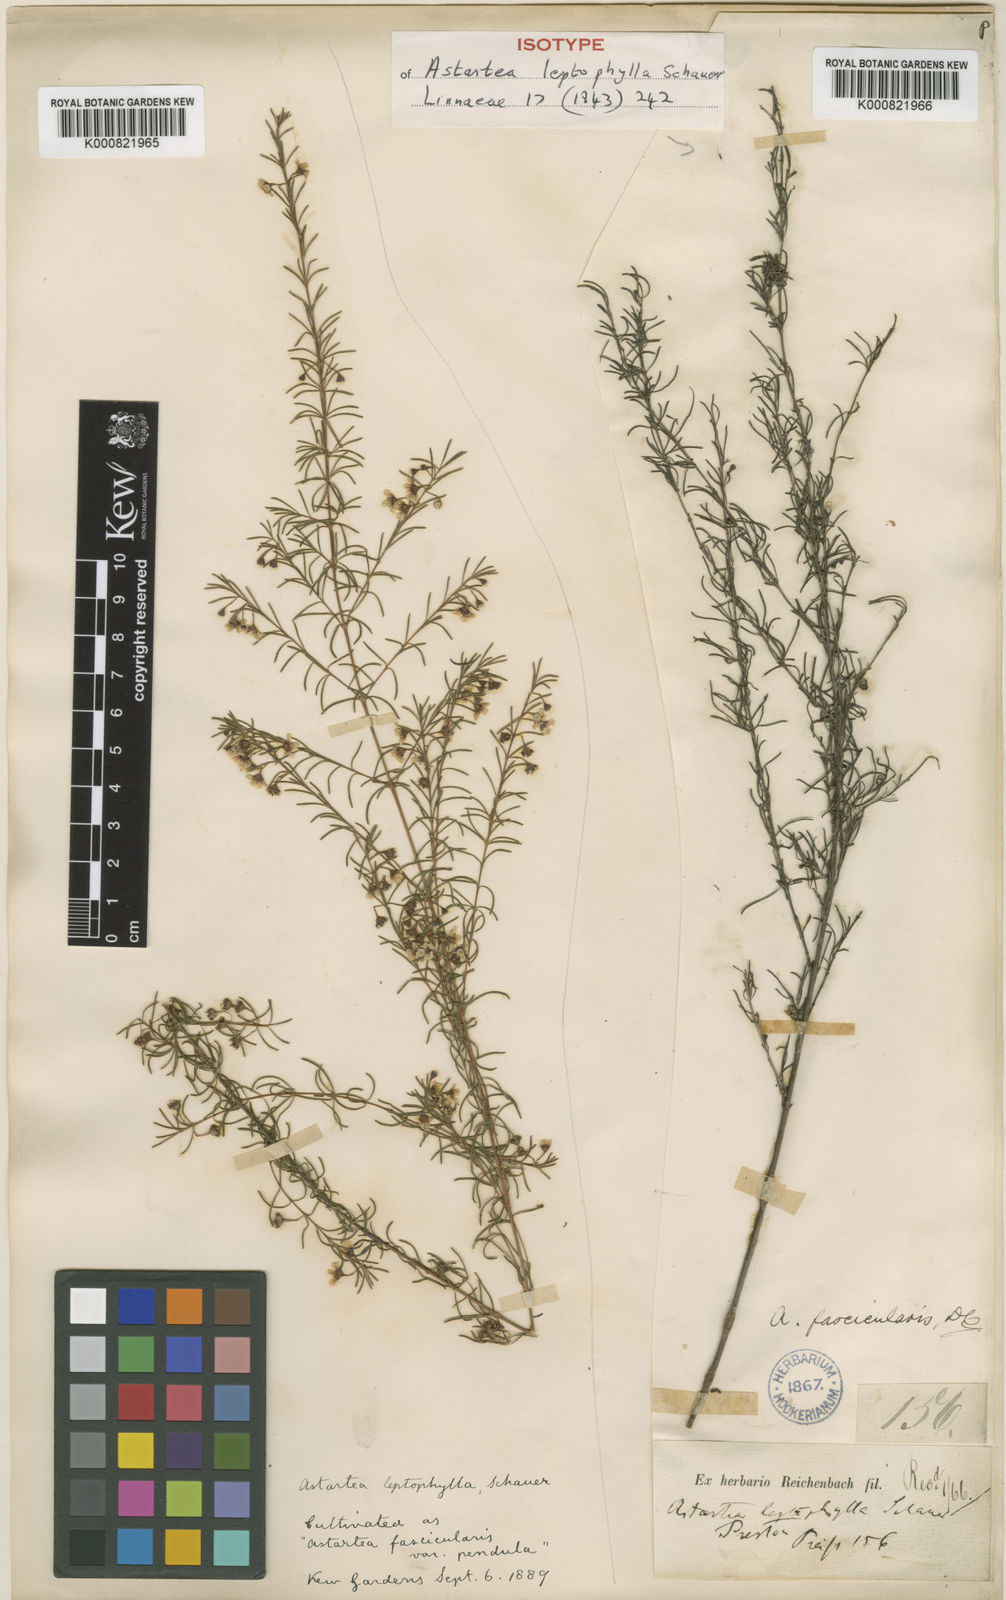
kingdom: Plantae
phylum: Tracheophyta
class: Magnoliopsida
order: Myrtales
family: Myrtaceae
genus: Astartea
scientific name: Astartea fascicularis
